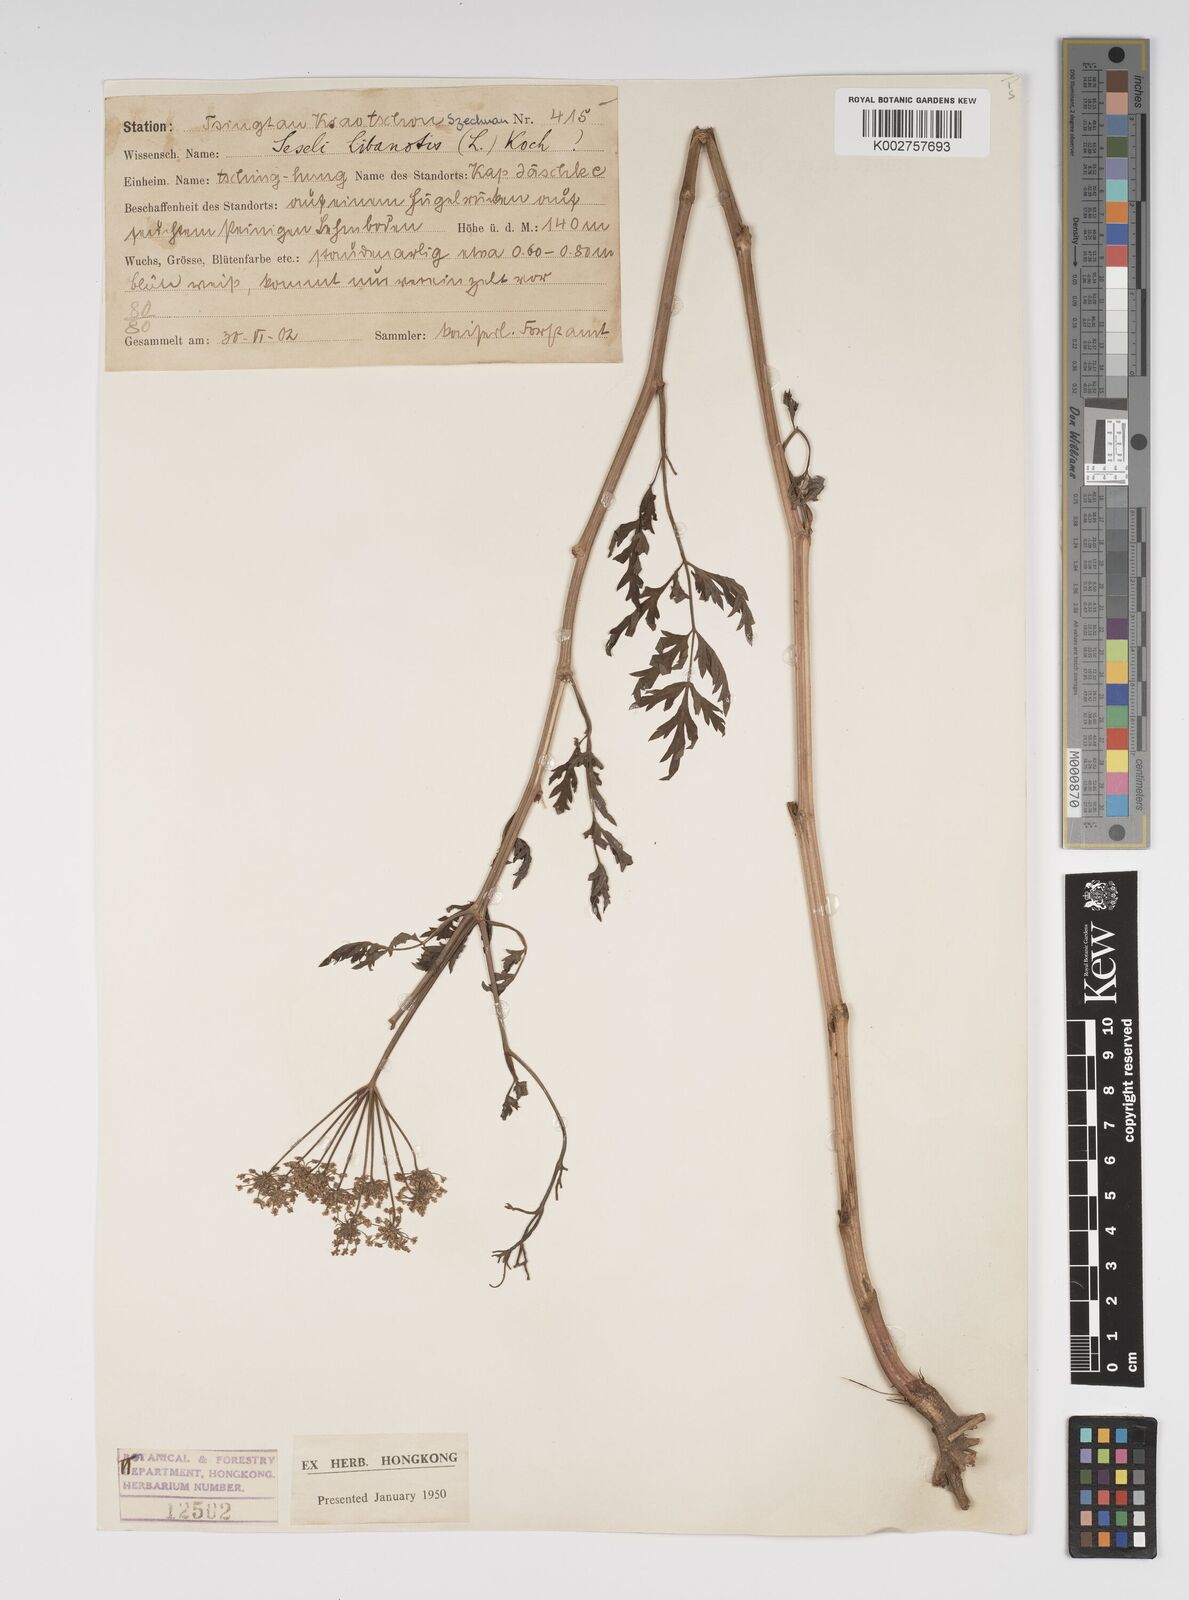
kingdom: Plantae
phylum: Tracheophyta
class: Magnoliopsida
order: Apiales
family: Apiaceae
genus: Seseli
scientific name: Seseli libanotis
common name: Mooncarrot
